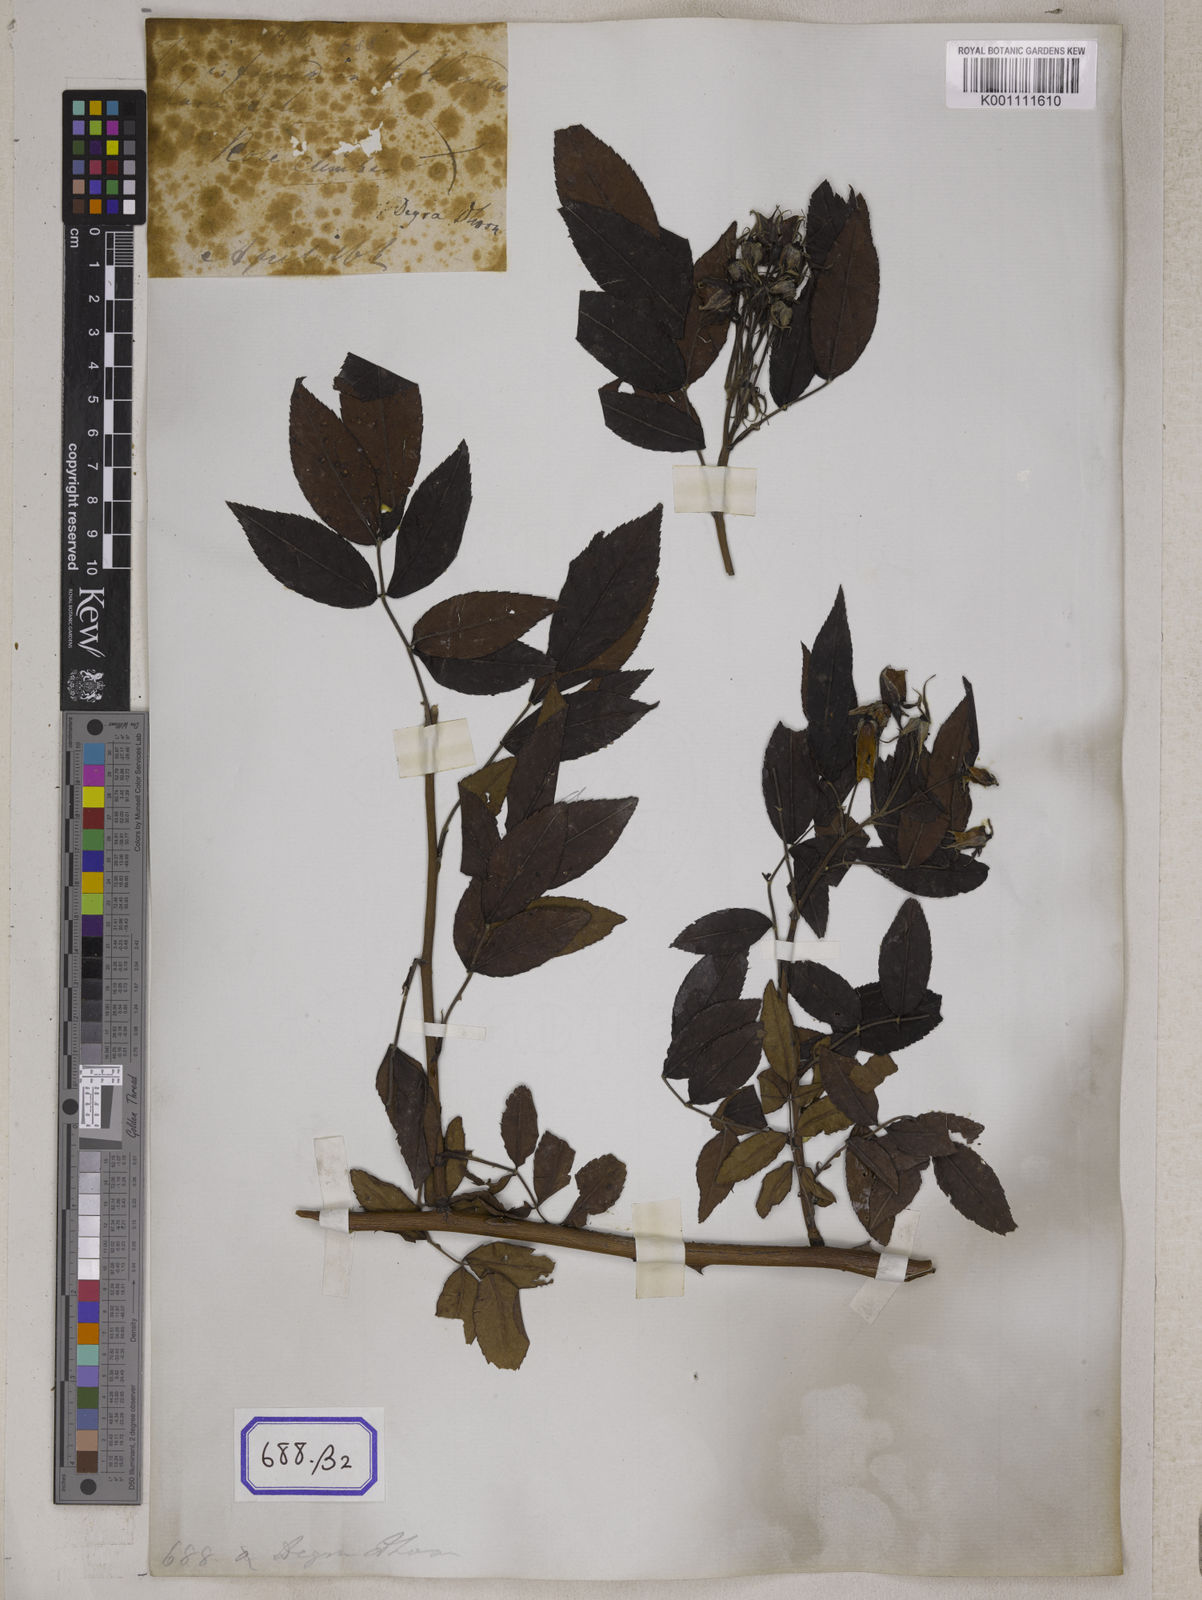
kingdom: Plantae
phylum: Tracheophyta
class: Magnoliopsida
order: Rosales
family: Rosaceae
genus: Rosa
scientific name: Rosa
